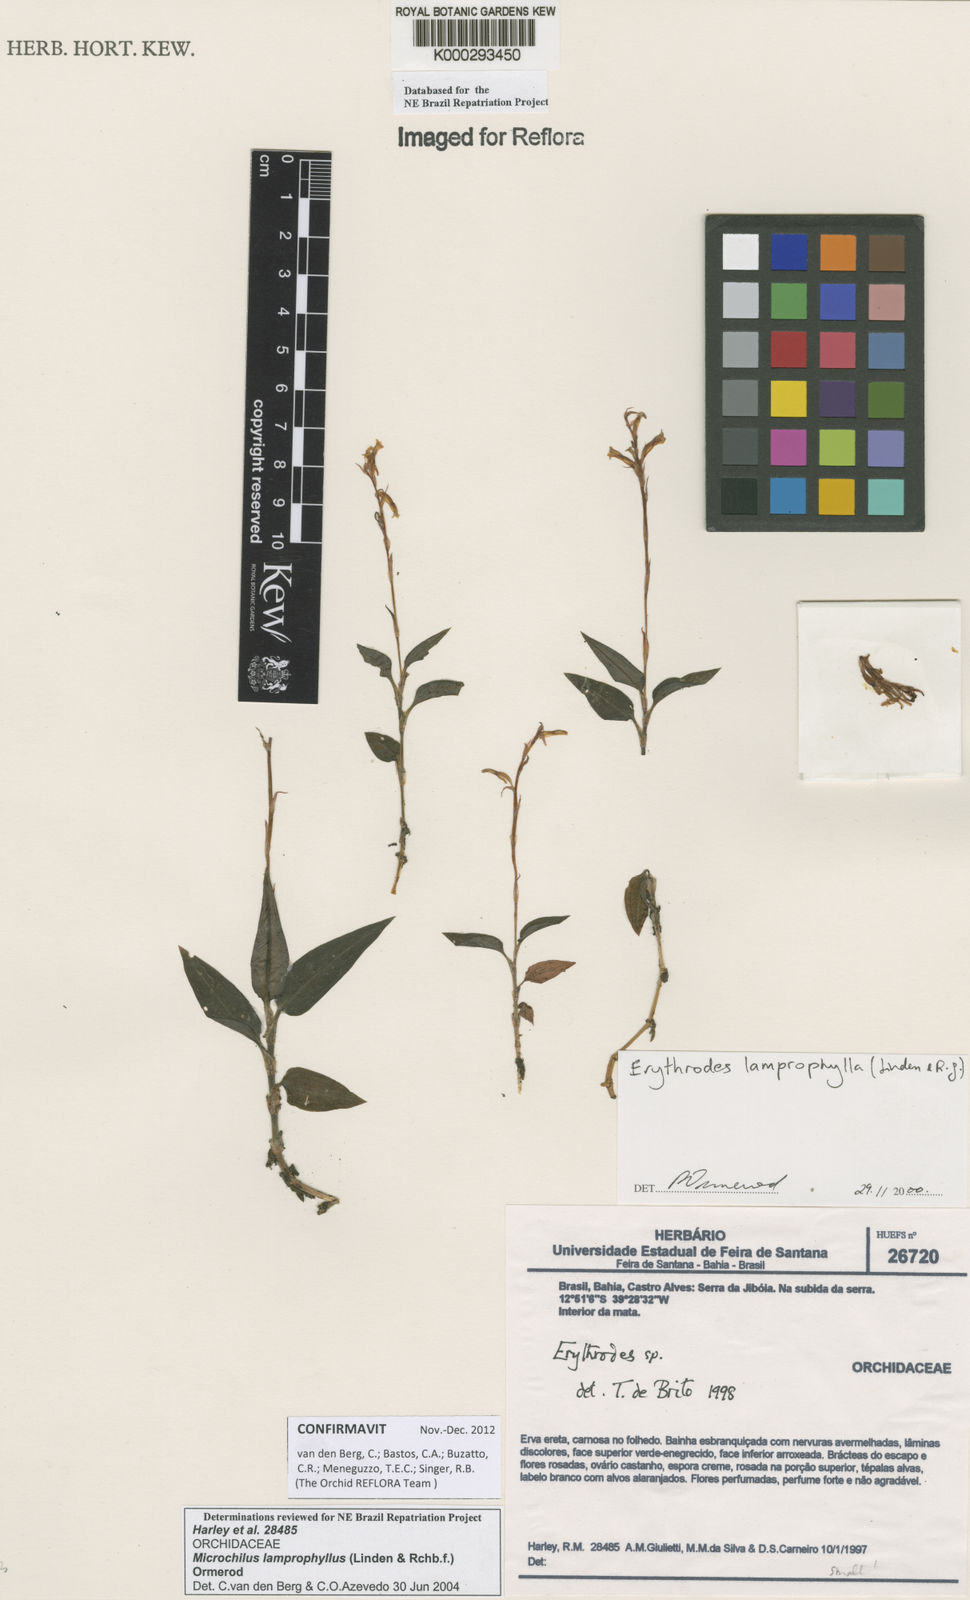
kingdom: Plantae
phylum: Tracheophyta
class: Liliopsida
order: Asparagales
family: Orchidaceae
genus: Microchilus
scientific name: Microchilus lamprophyllus
